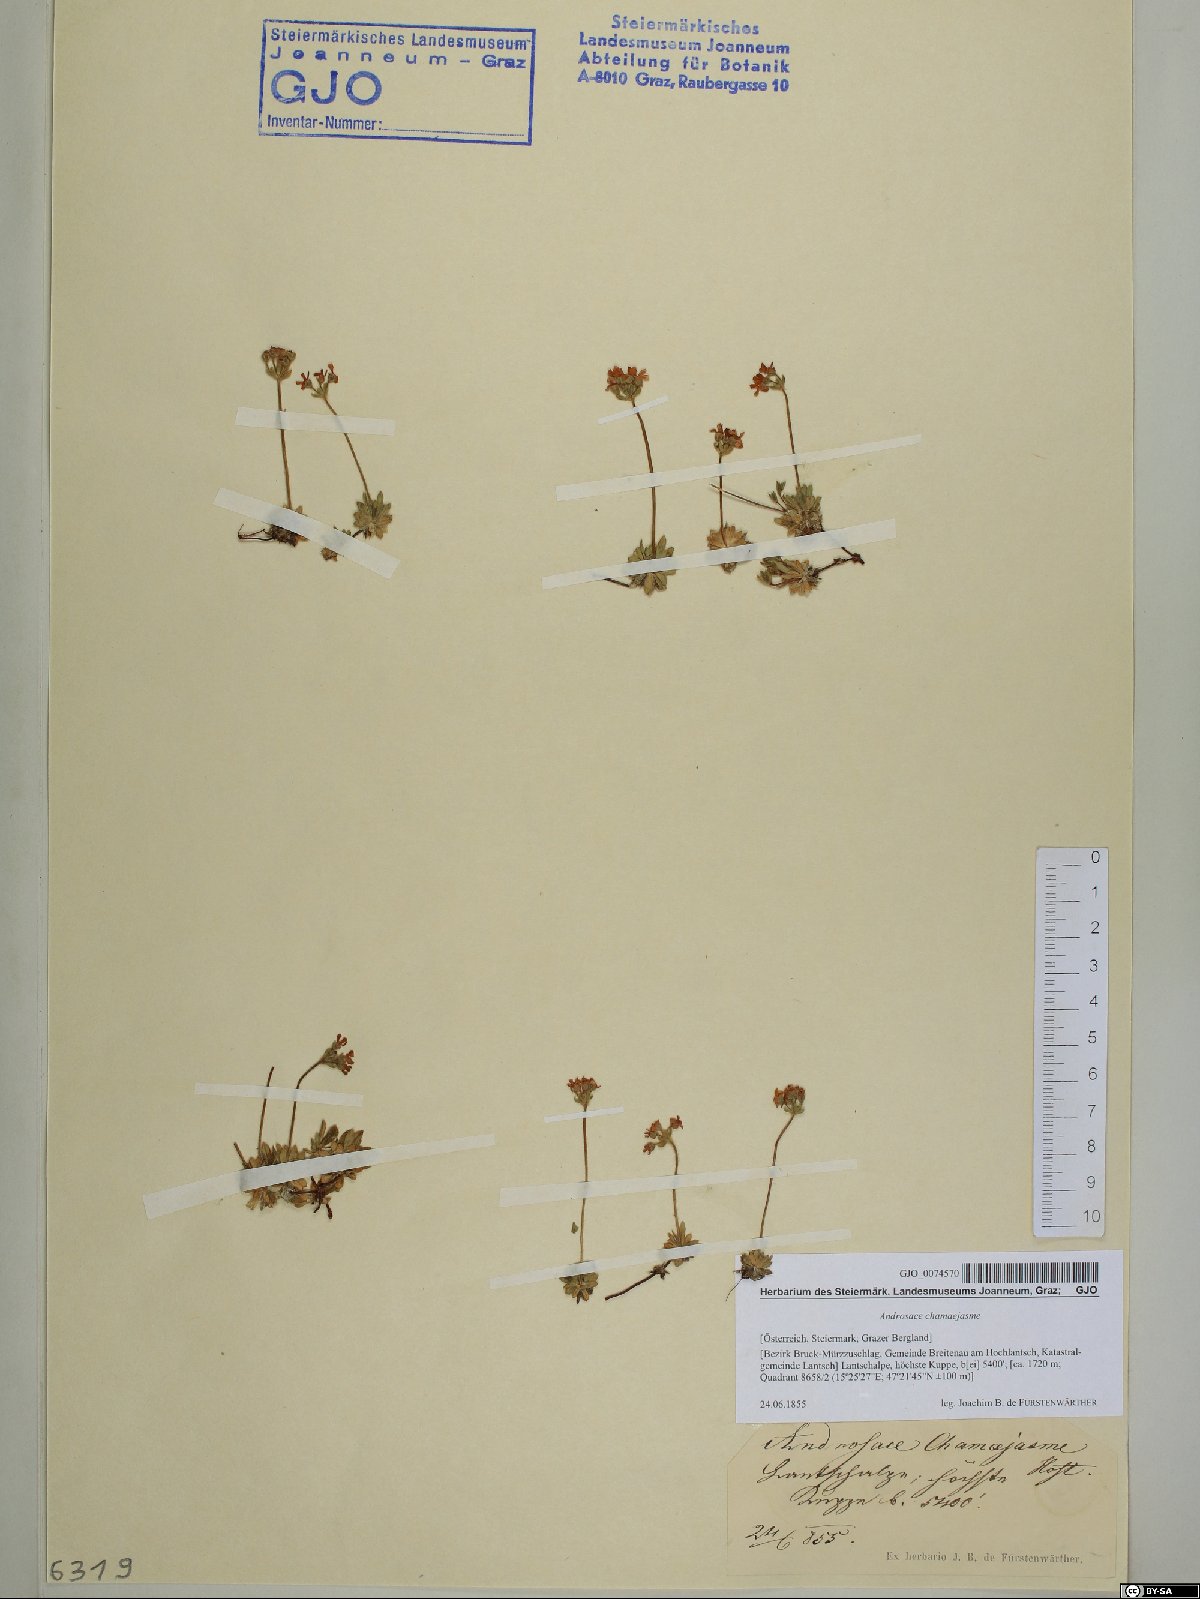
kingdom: Plantae
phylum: Tracheophyta
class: Magnoliopsida
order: Ericales
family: Primulaceae
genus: Androsace
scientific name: Androsace chamaejasme
